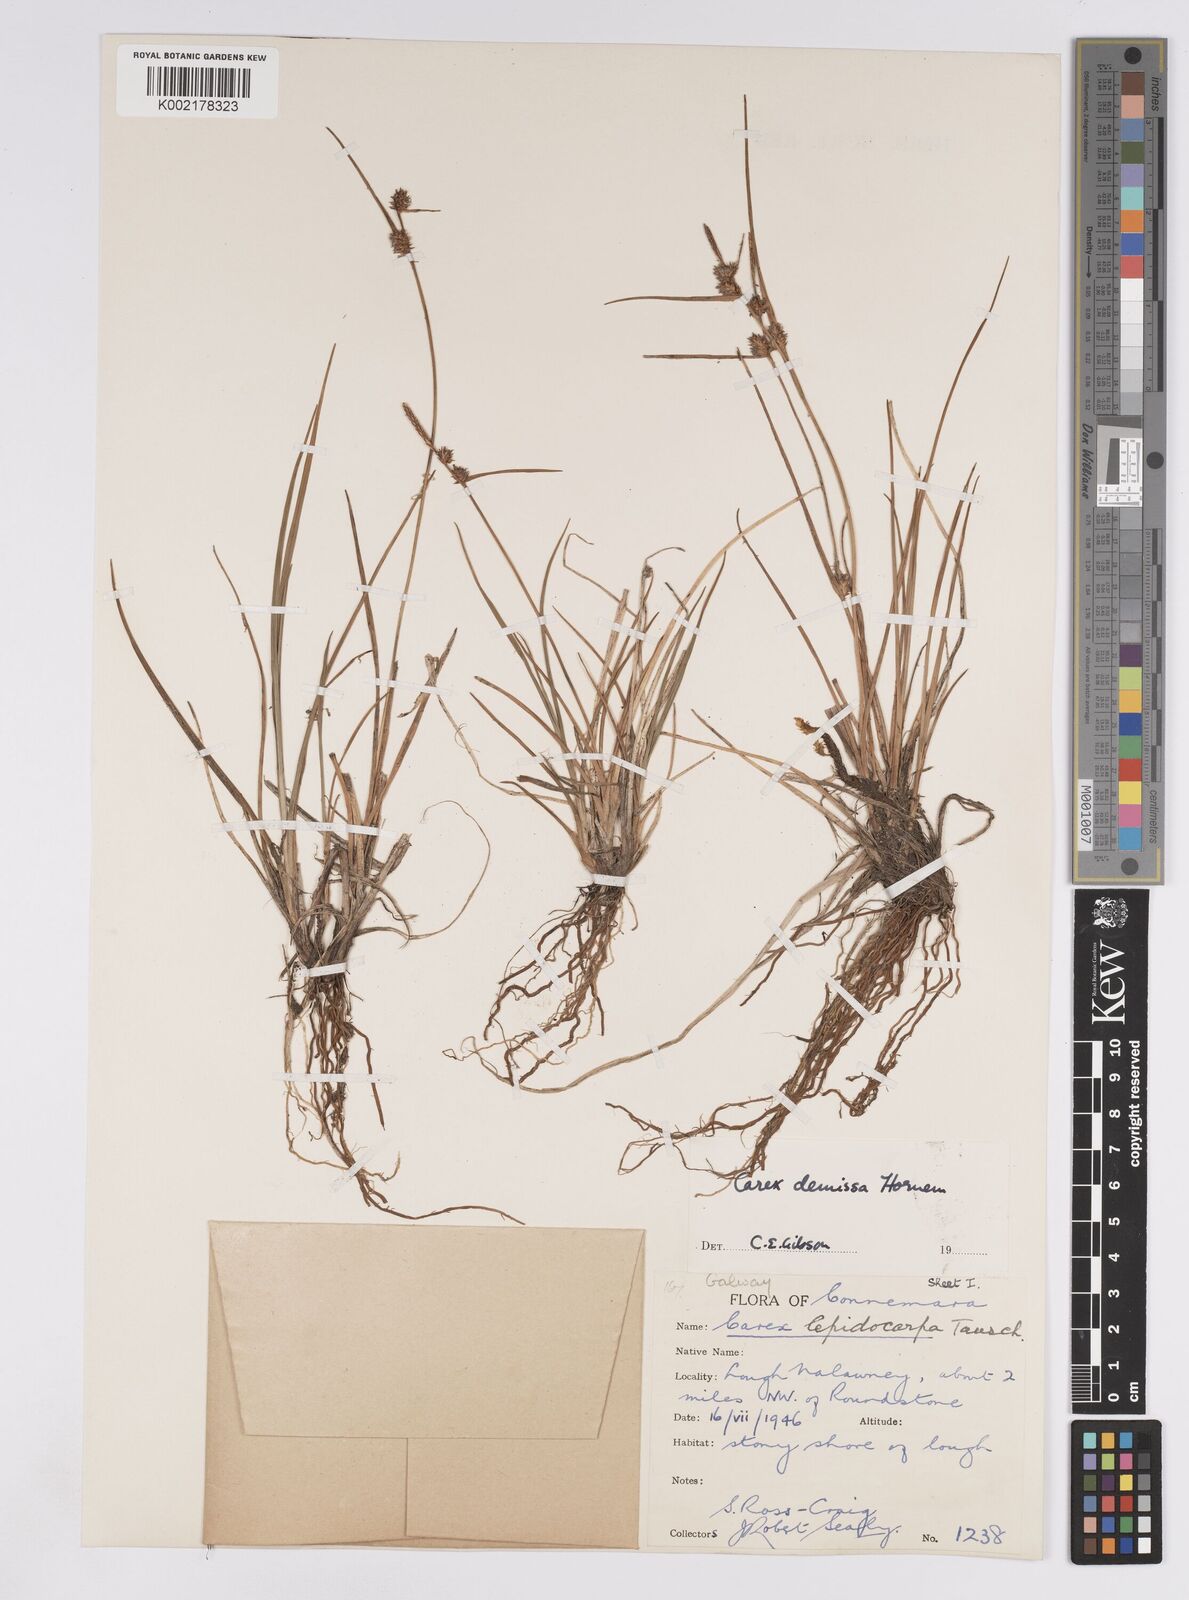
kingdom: Plantae
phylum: Tracheophyta
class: Liliopsida
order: Poales
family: Cyperaceae
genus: Carex
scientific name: Carex demissa
